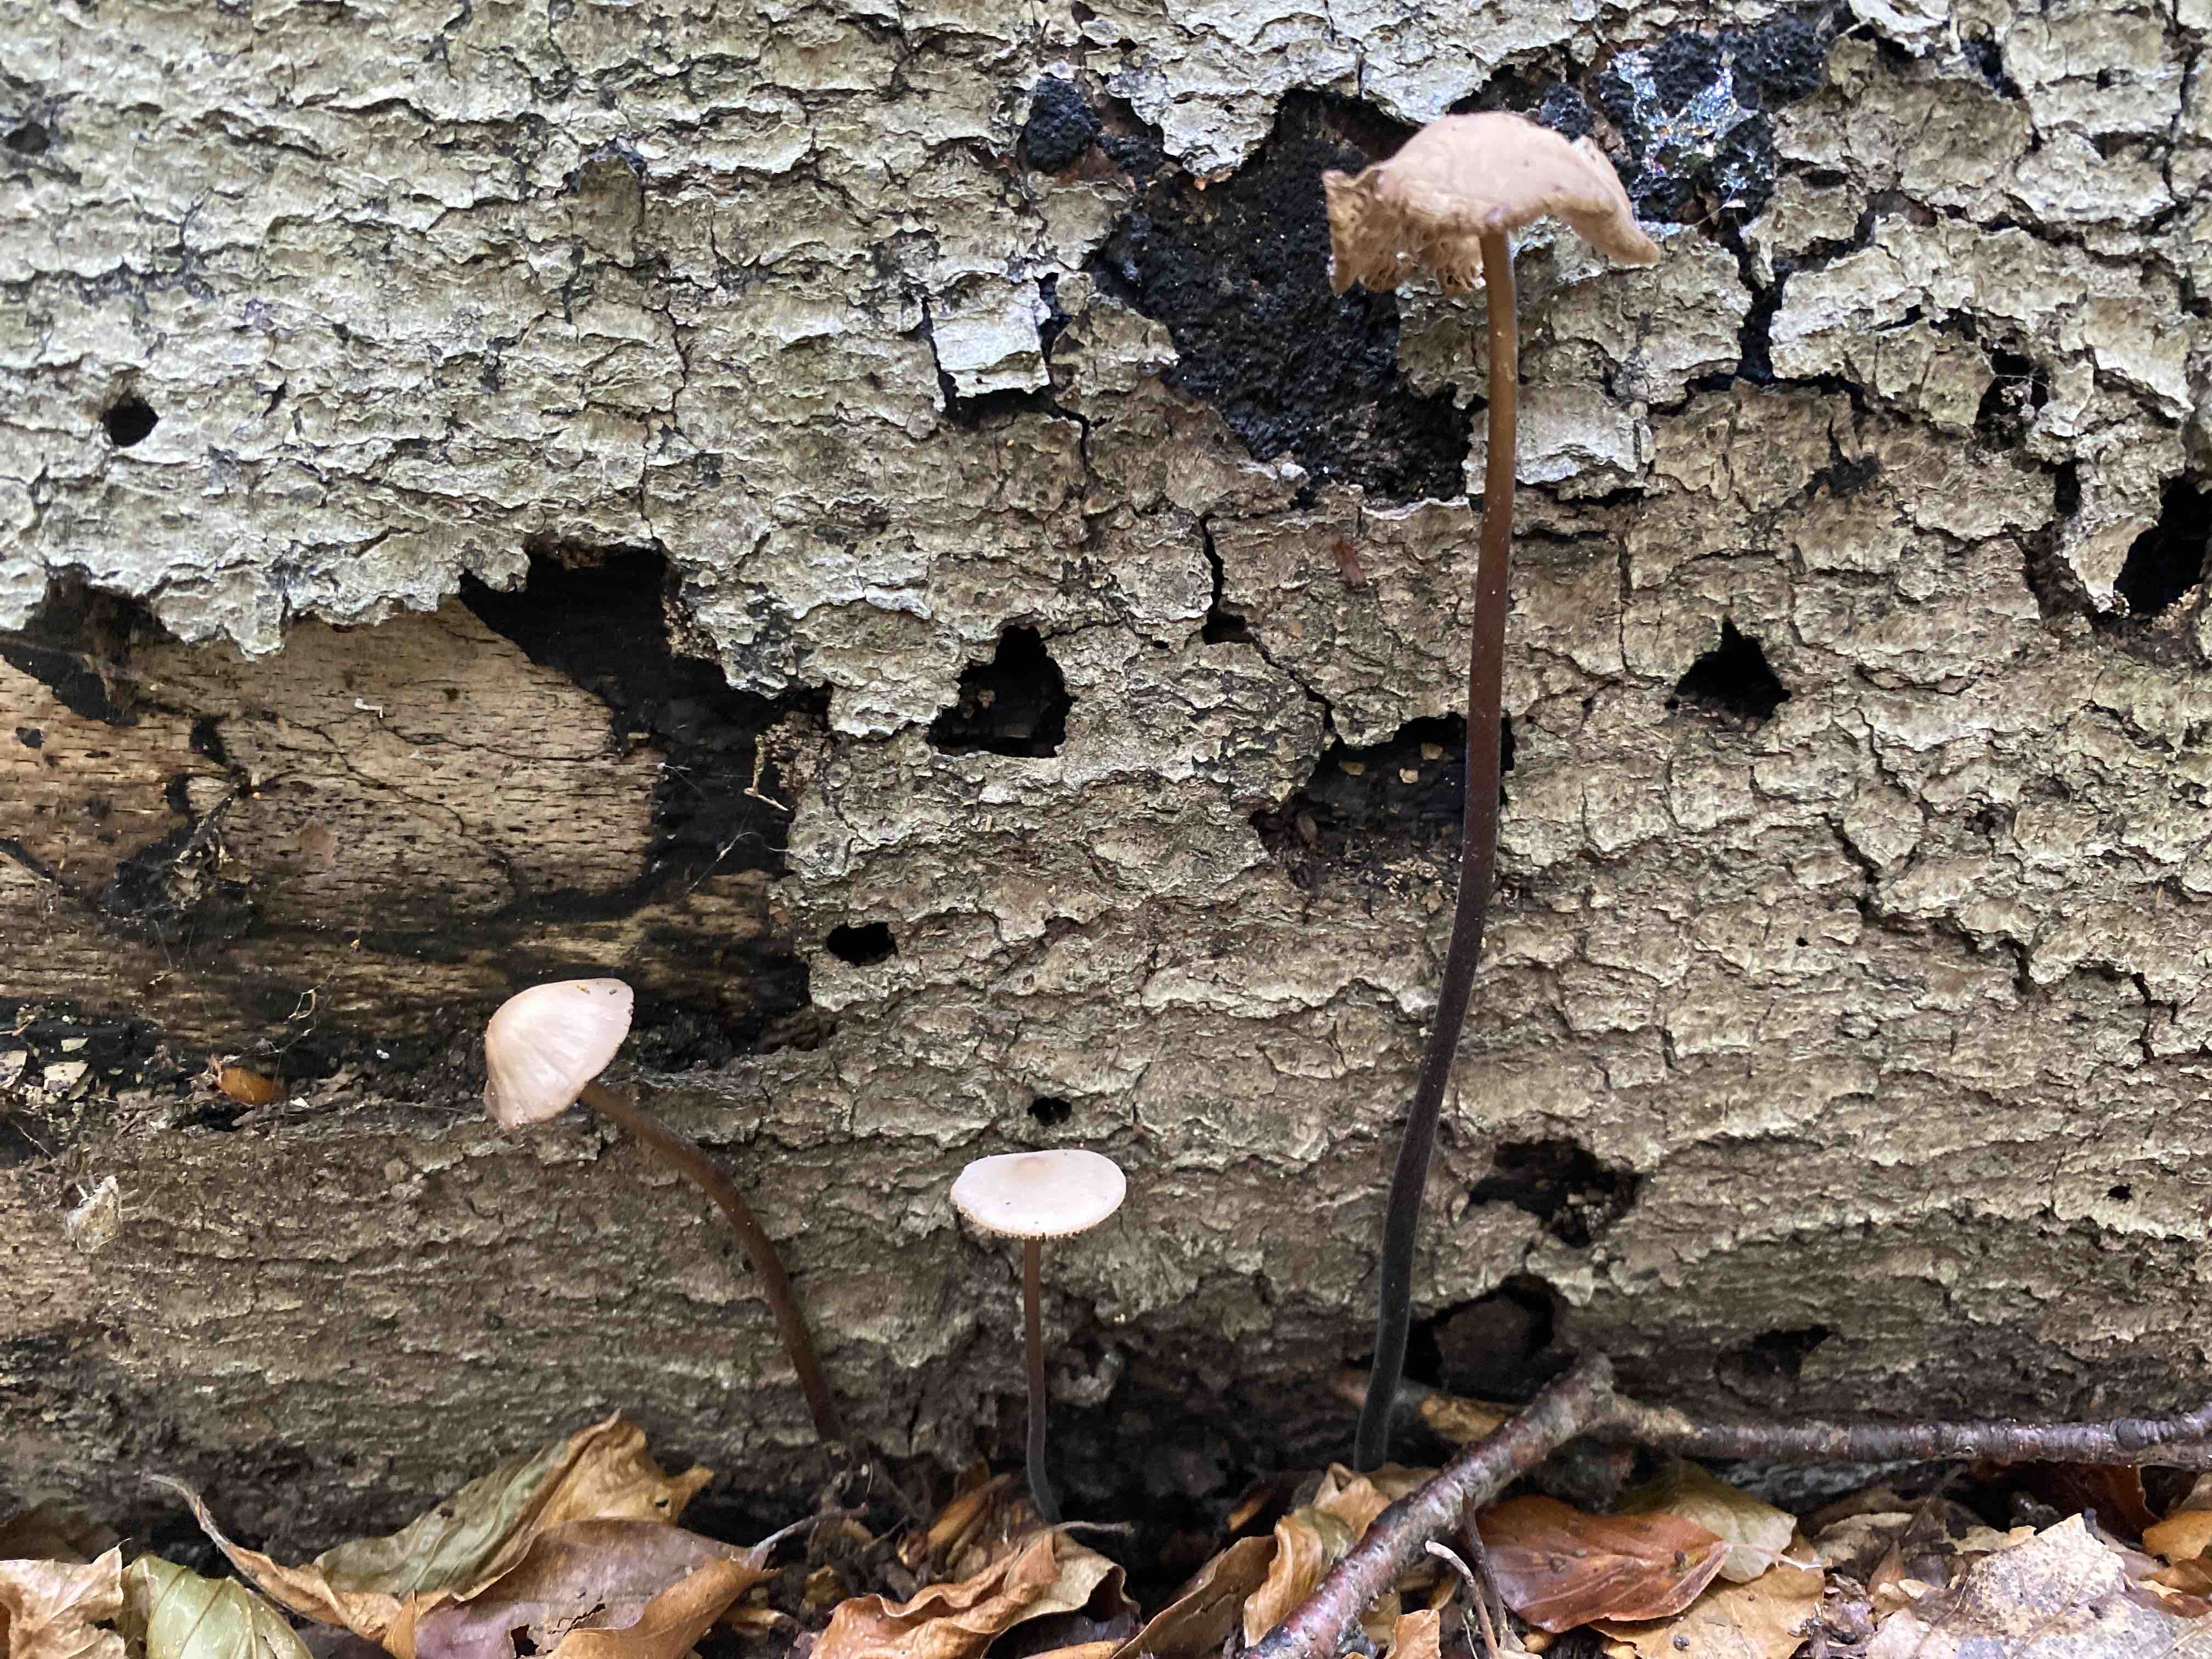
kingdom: Fungi
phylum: Basidiomycota
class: Agaricomycetes
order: Agaricales
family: Omphalotaceae
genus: Mycetinis
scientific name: Mycetinis alliaceus
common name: stor løghat
